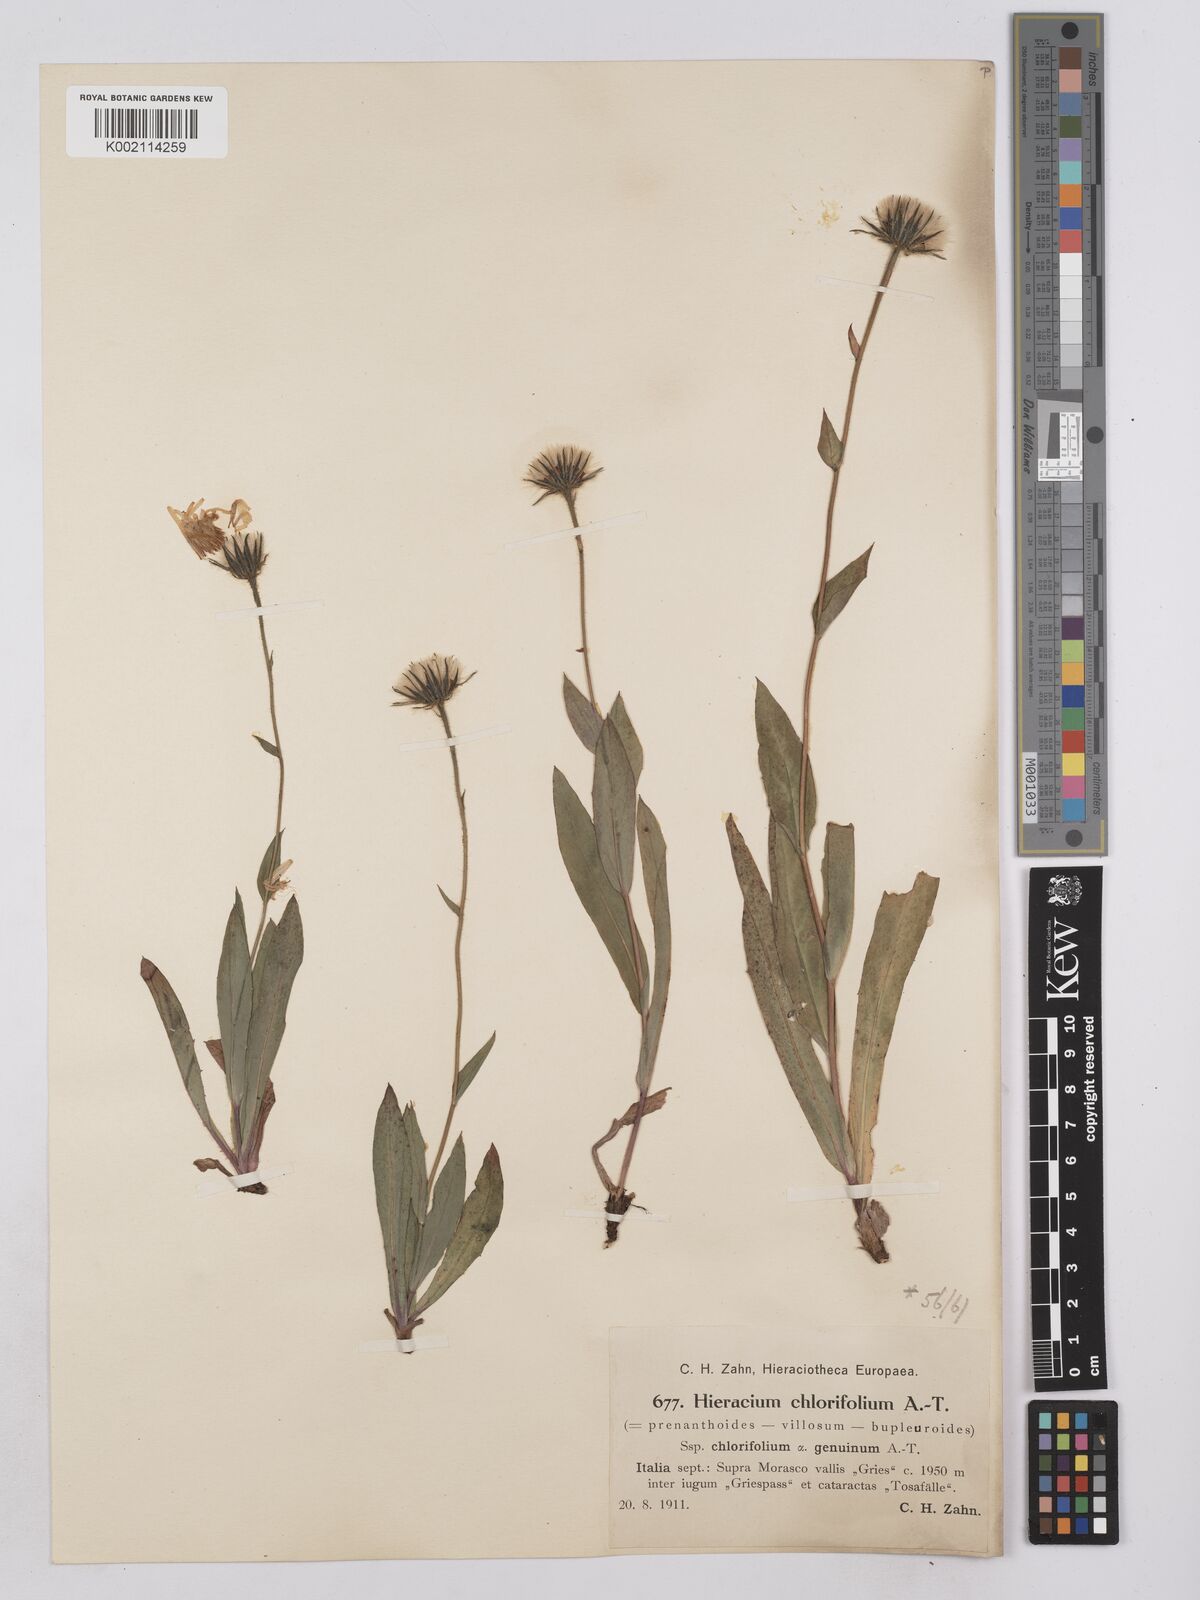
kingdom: Plantae
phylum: Tracheophyta
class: Magnoliopsida
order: Asterales
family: Asteraceae
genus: Hieracium
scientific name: Hieracium chlorifolium
